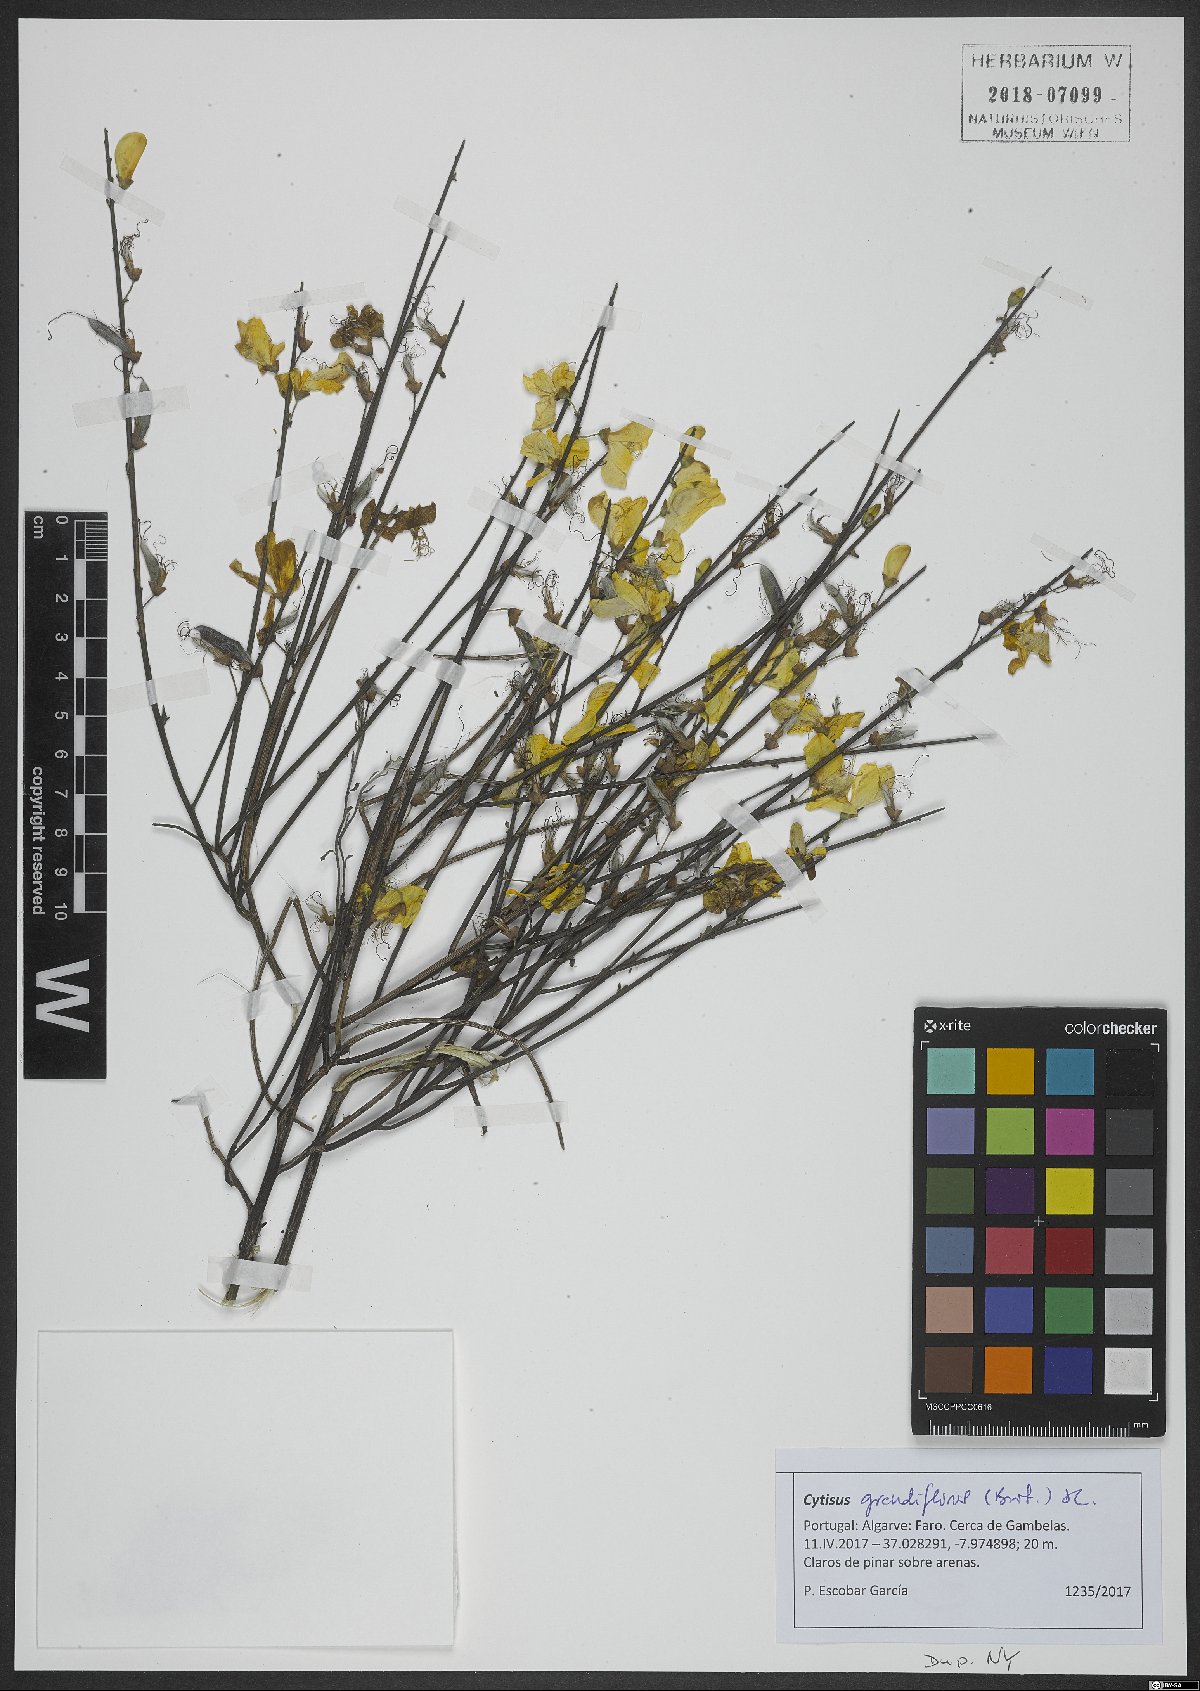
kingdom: Plantae
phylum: Tracheophyta
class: Magnoliopsida
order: Fabales
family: Fabaceae
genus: Cytisus
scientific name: Cytisus grandiflorus
